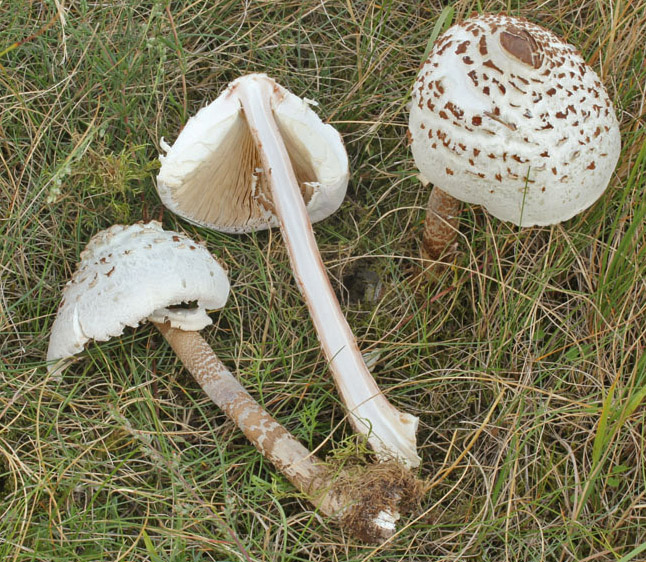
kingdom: Fungi
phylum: Basidiomycota
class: Agaricomycetes
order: Agaricales
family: Agaricaceae
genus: Macrolepiota
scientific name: Macrolepiota
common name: kæmpeparasolhat
